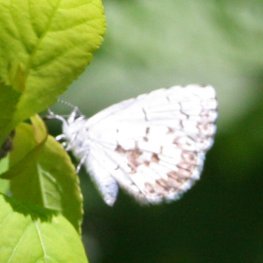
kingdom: Animalia
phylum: Arthropoda
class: Insecta
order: Lepidoptera
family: Lycaenidae
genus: Celastrina
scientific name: Celastrina serotina
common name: Cherry Gall Azure
